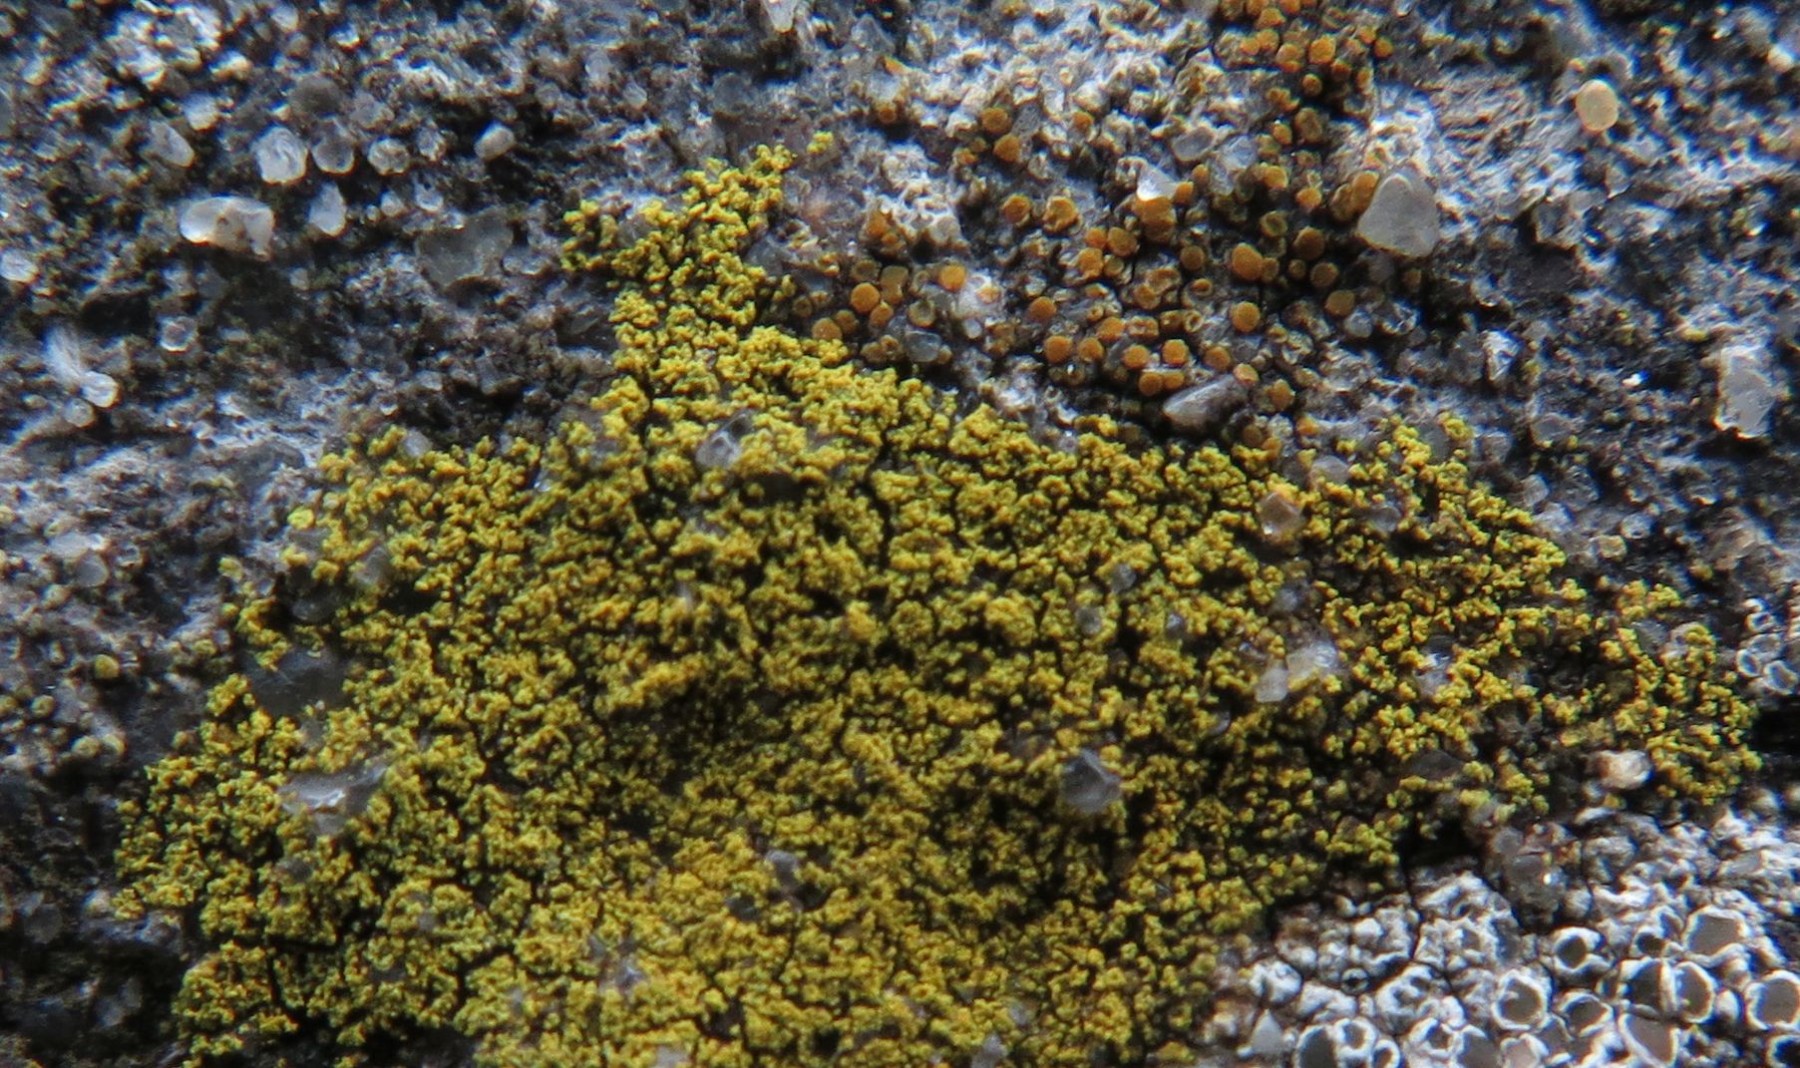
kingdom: Fungi
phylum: Ascomycota
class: Lecanoromycetes
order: Teloschistales
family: Teloschistaceae
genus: Flavoplaca
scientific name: Flavoplaca flavocitrina
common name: grynskællet orangelav
